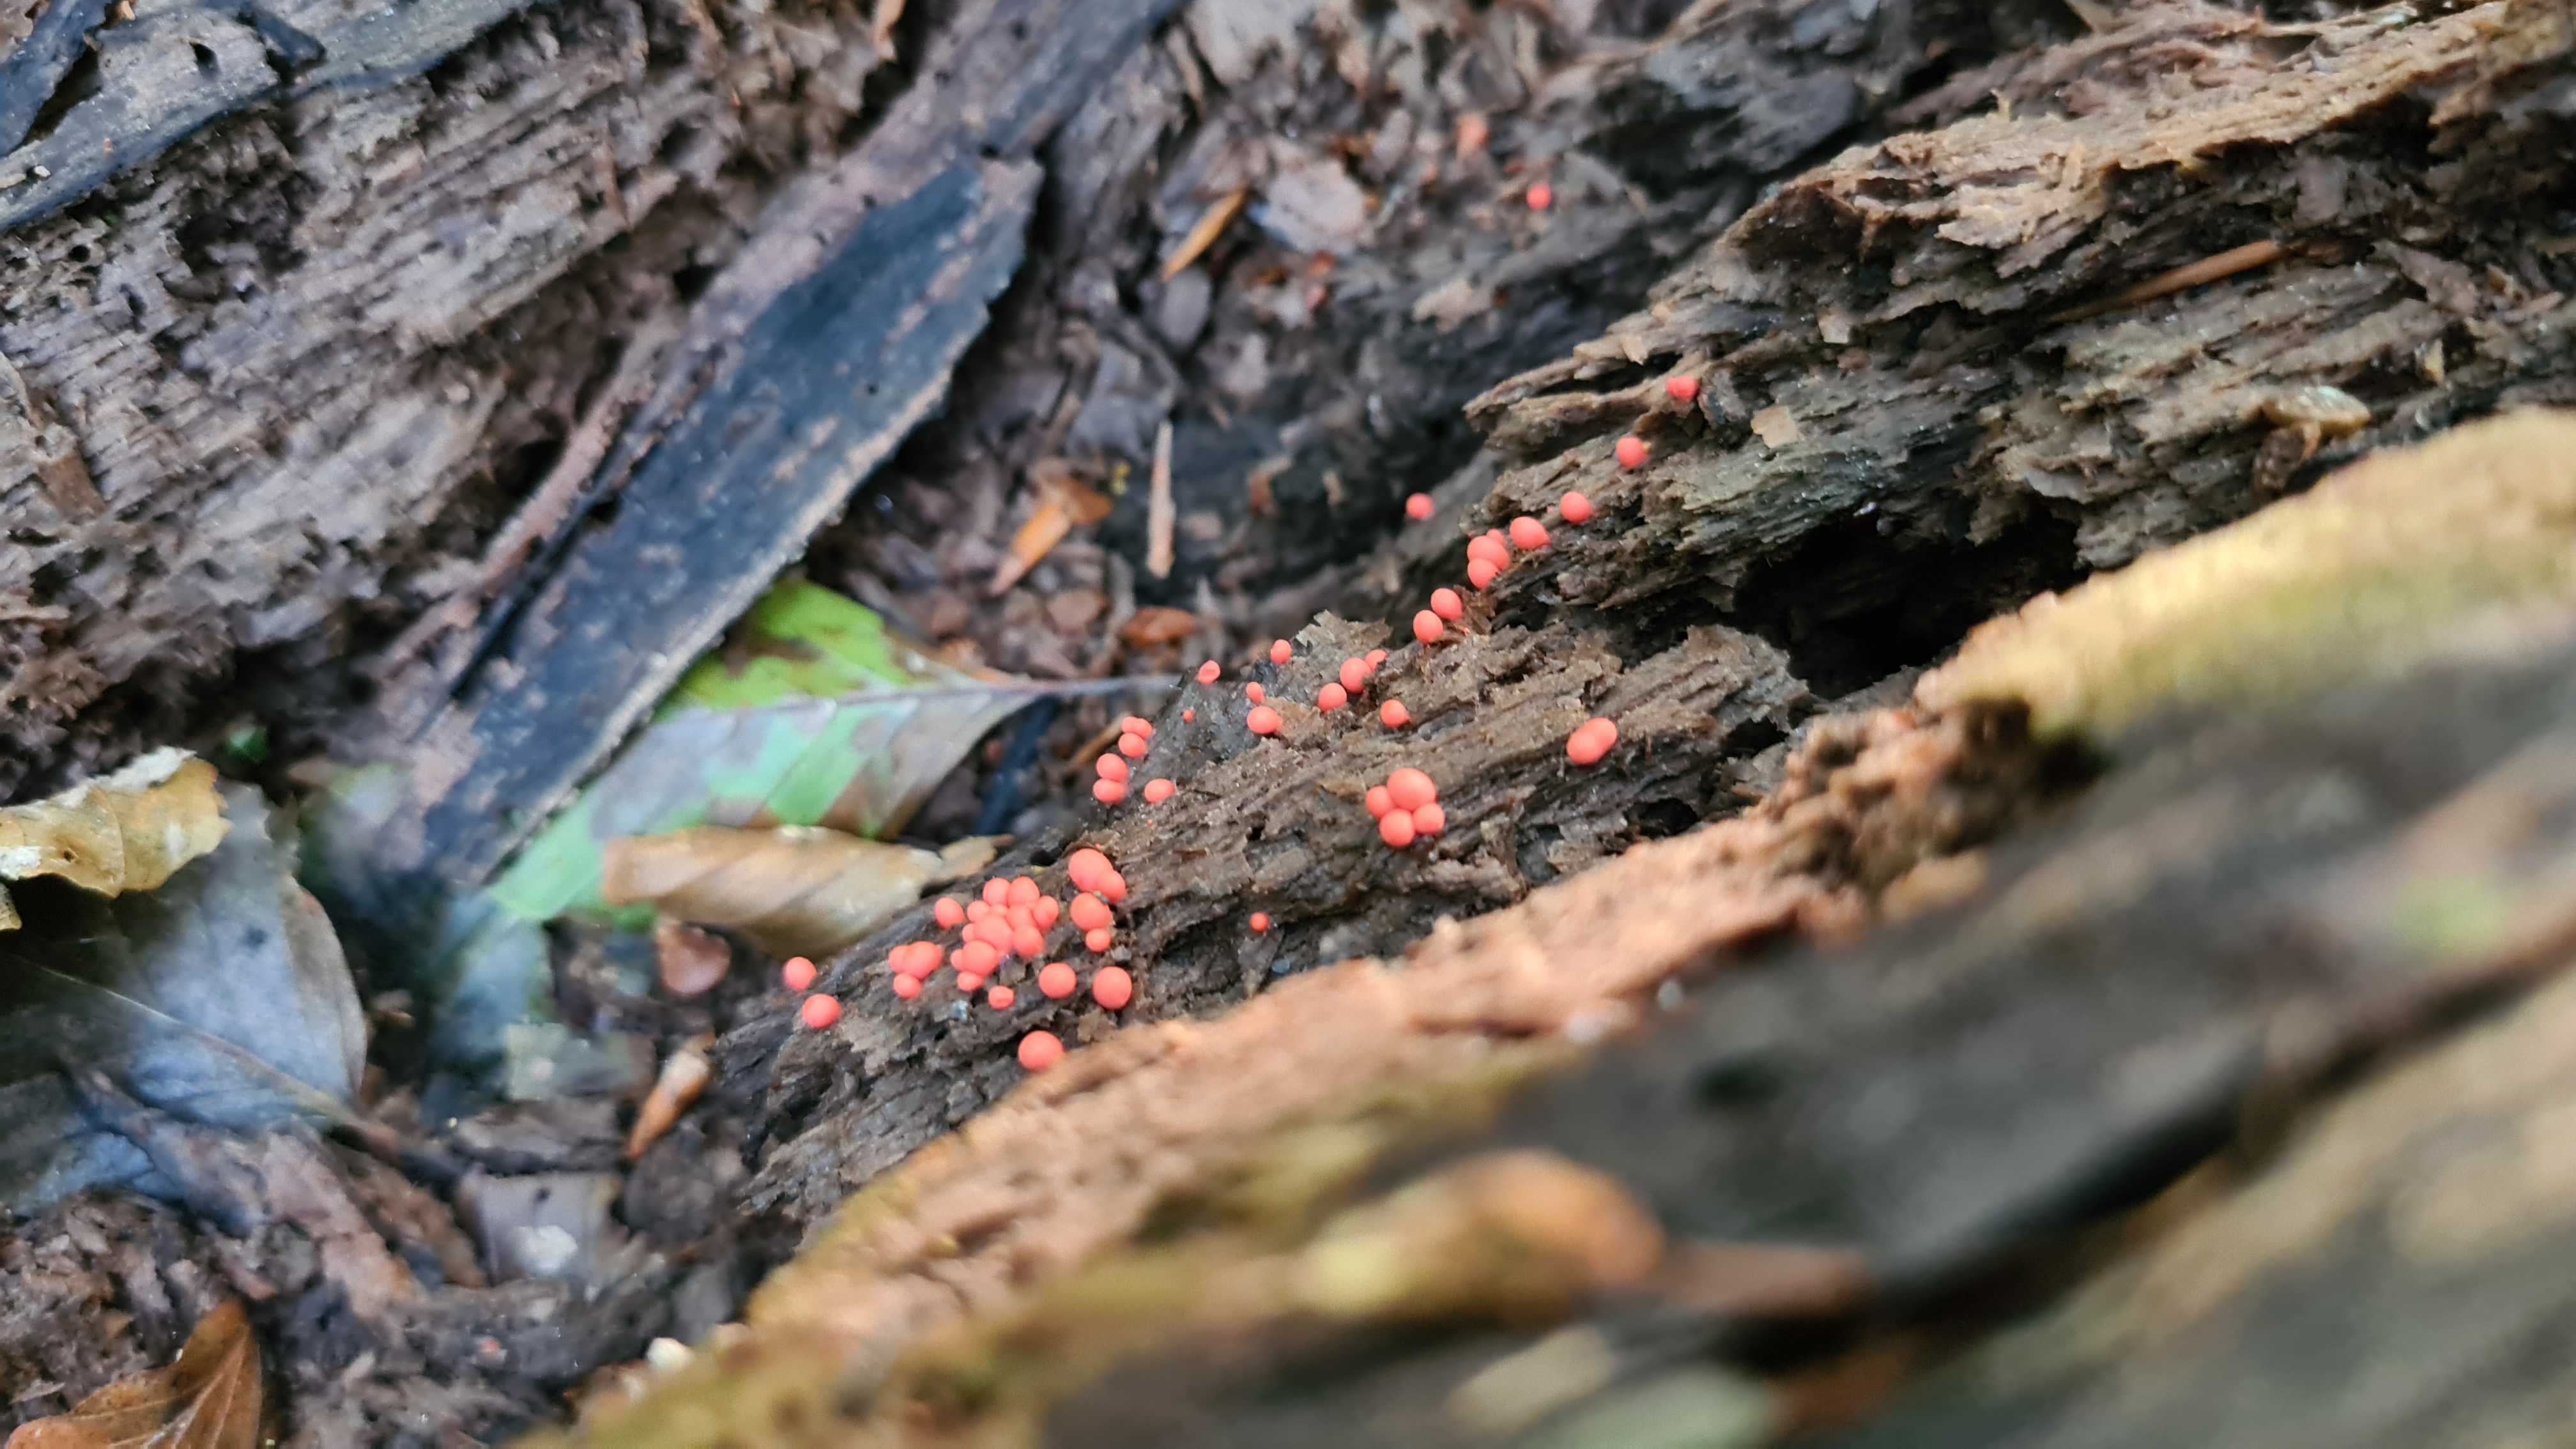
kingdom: Protozoa
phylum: Mycetozoa
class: Myxomycetes
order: Cribrariales
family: Tubiferaceae
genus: Lycogala
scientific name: Lycogala epidendrum
